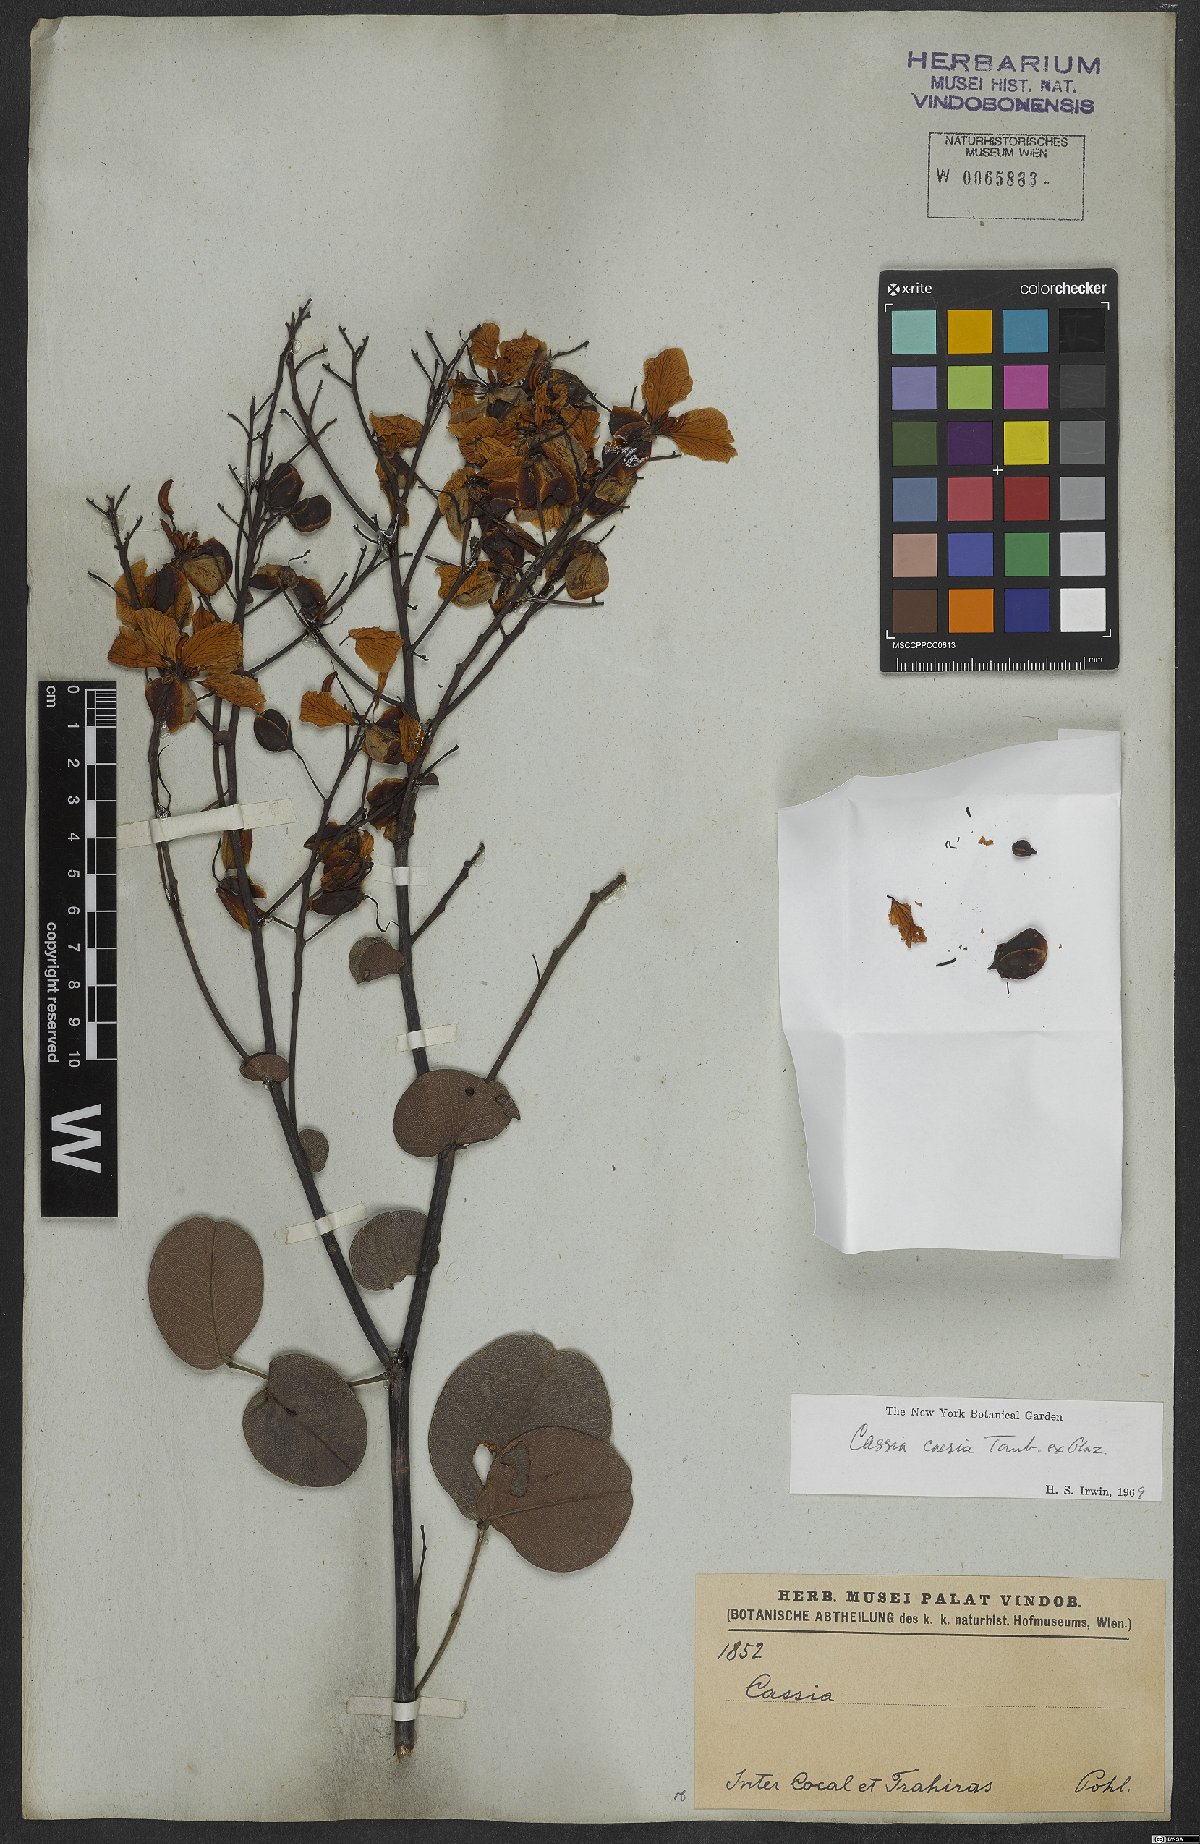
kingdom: Plantae
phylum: Tracheophyta
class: Magnoliopsida
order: Fabales
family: Fabaceae
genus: Senna
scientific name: Senna corifolia
